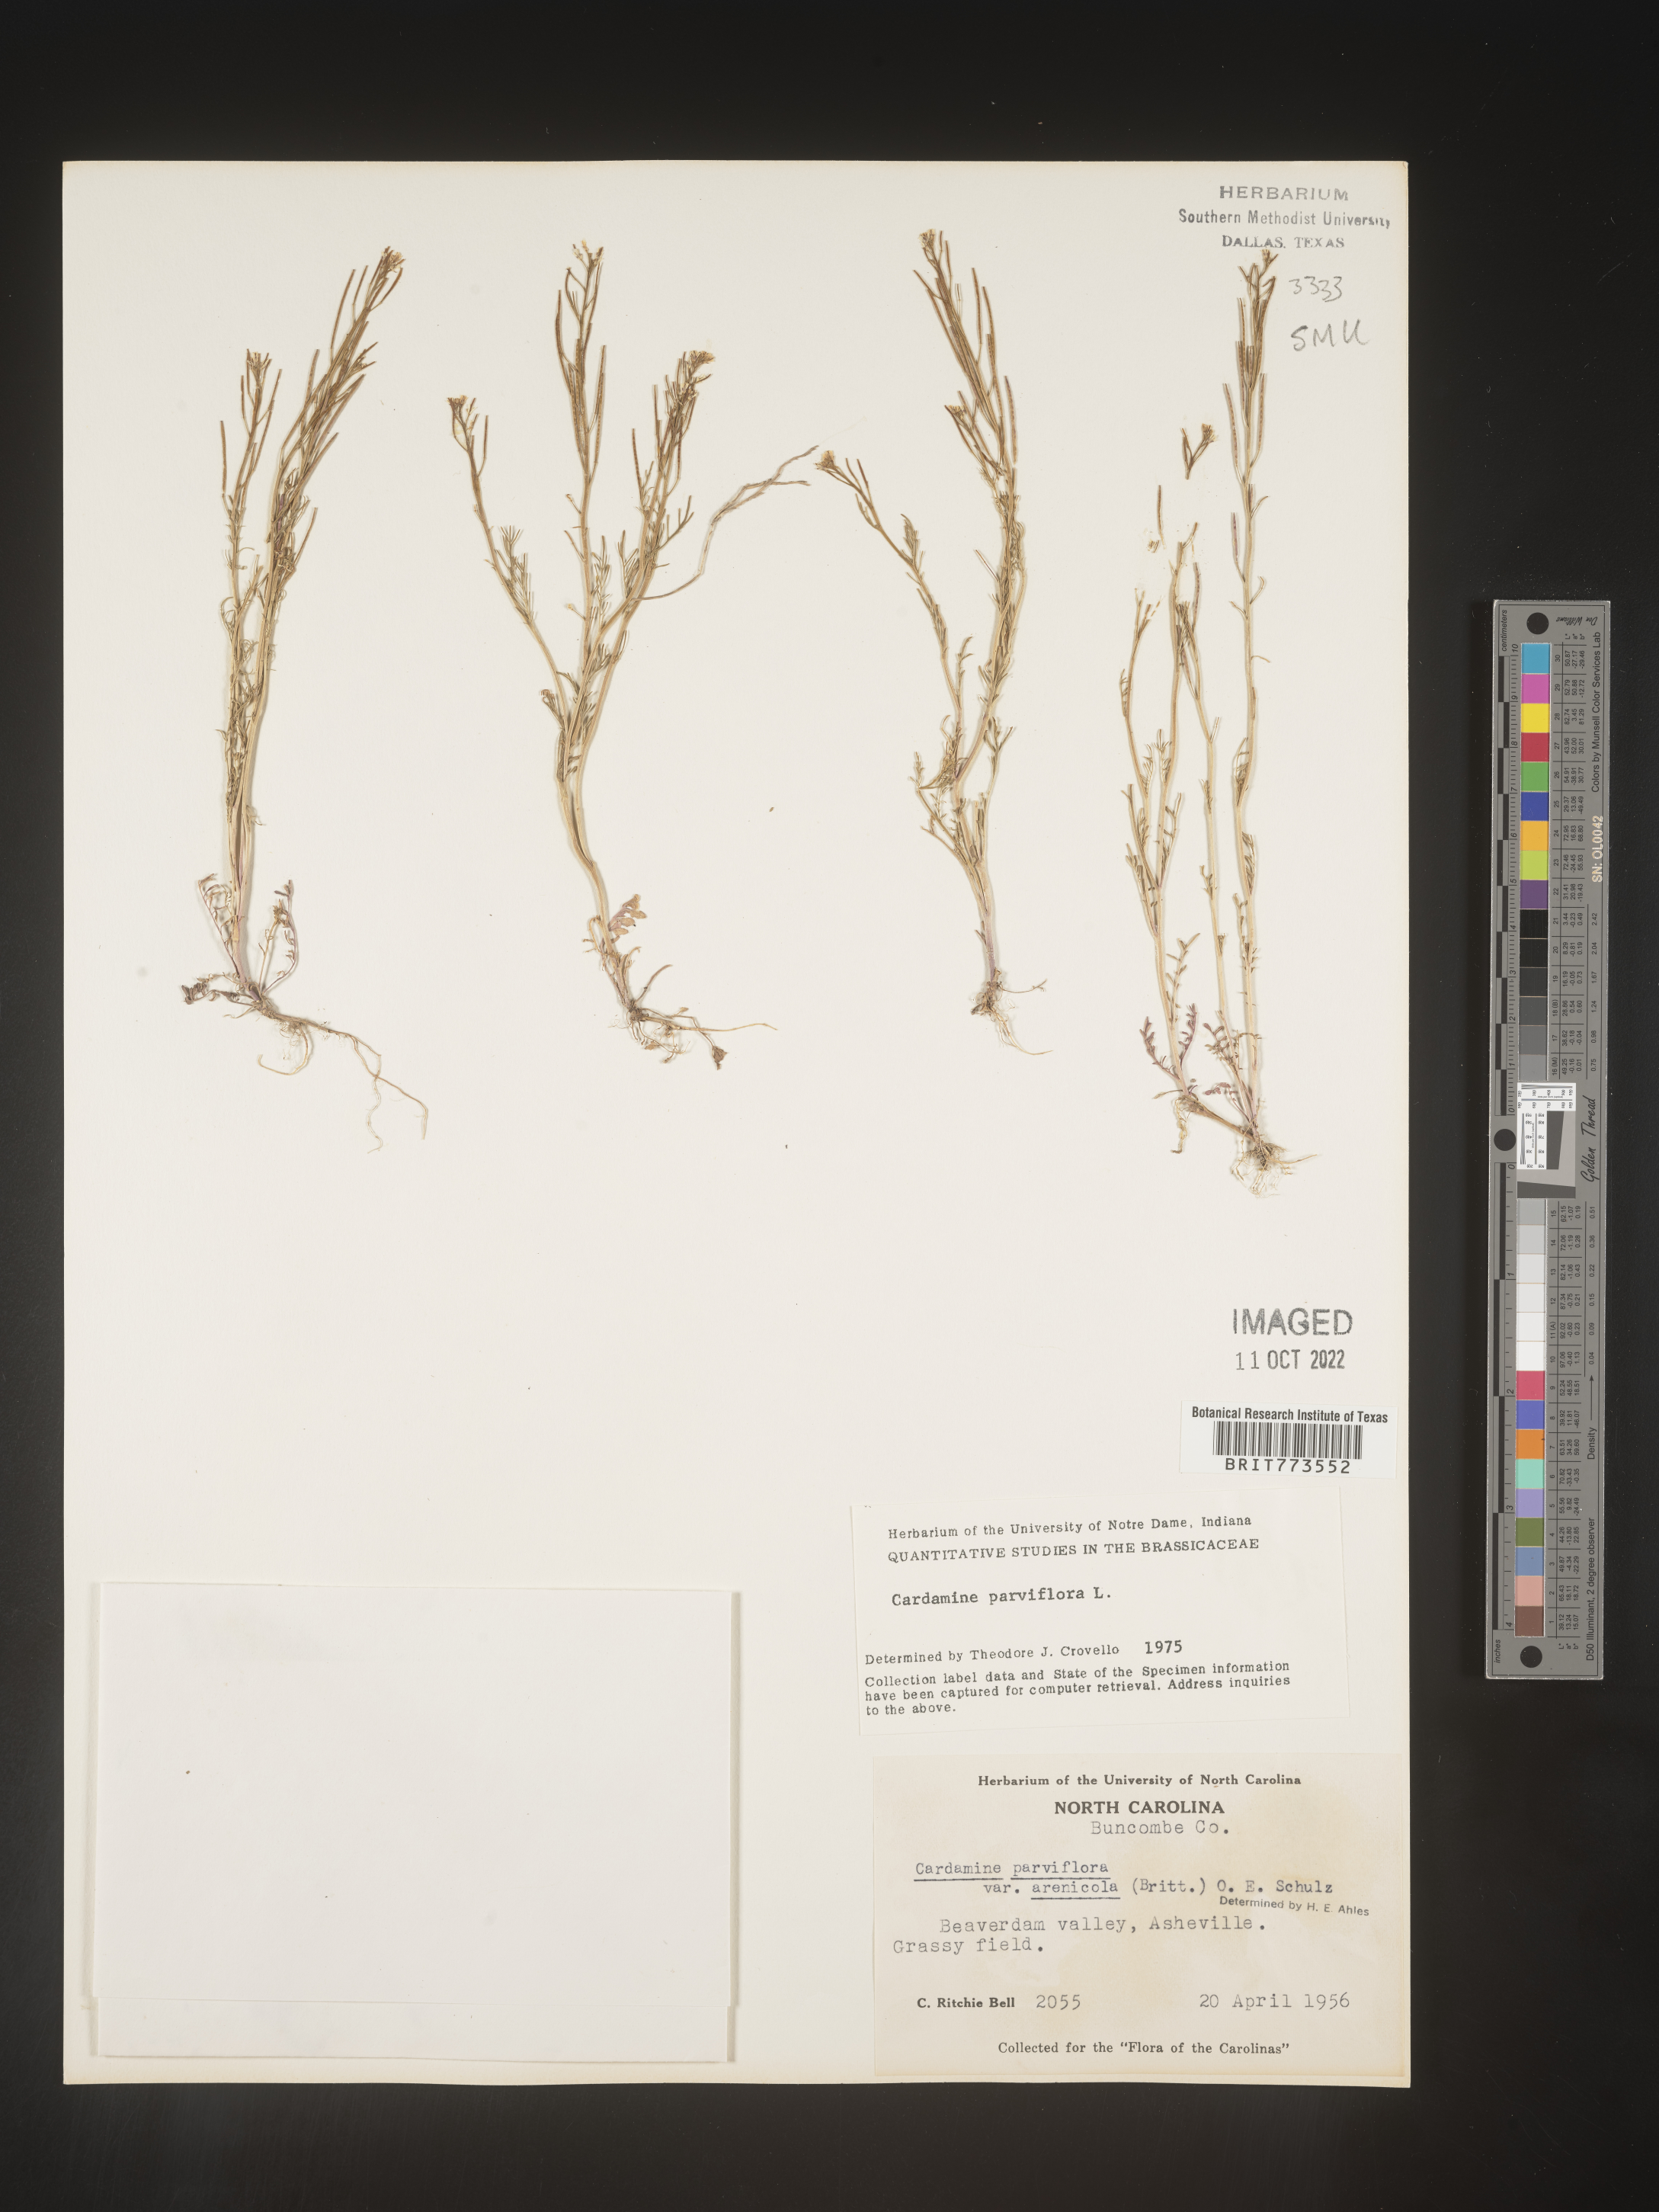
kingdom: Plantae
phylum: Tracheophyta
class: Magnoliopsida
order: Brassicales
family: Brassicaceae
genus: Cardamine
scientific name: Cardamine parviflora
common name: Sand bittercress
